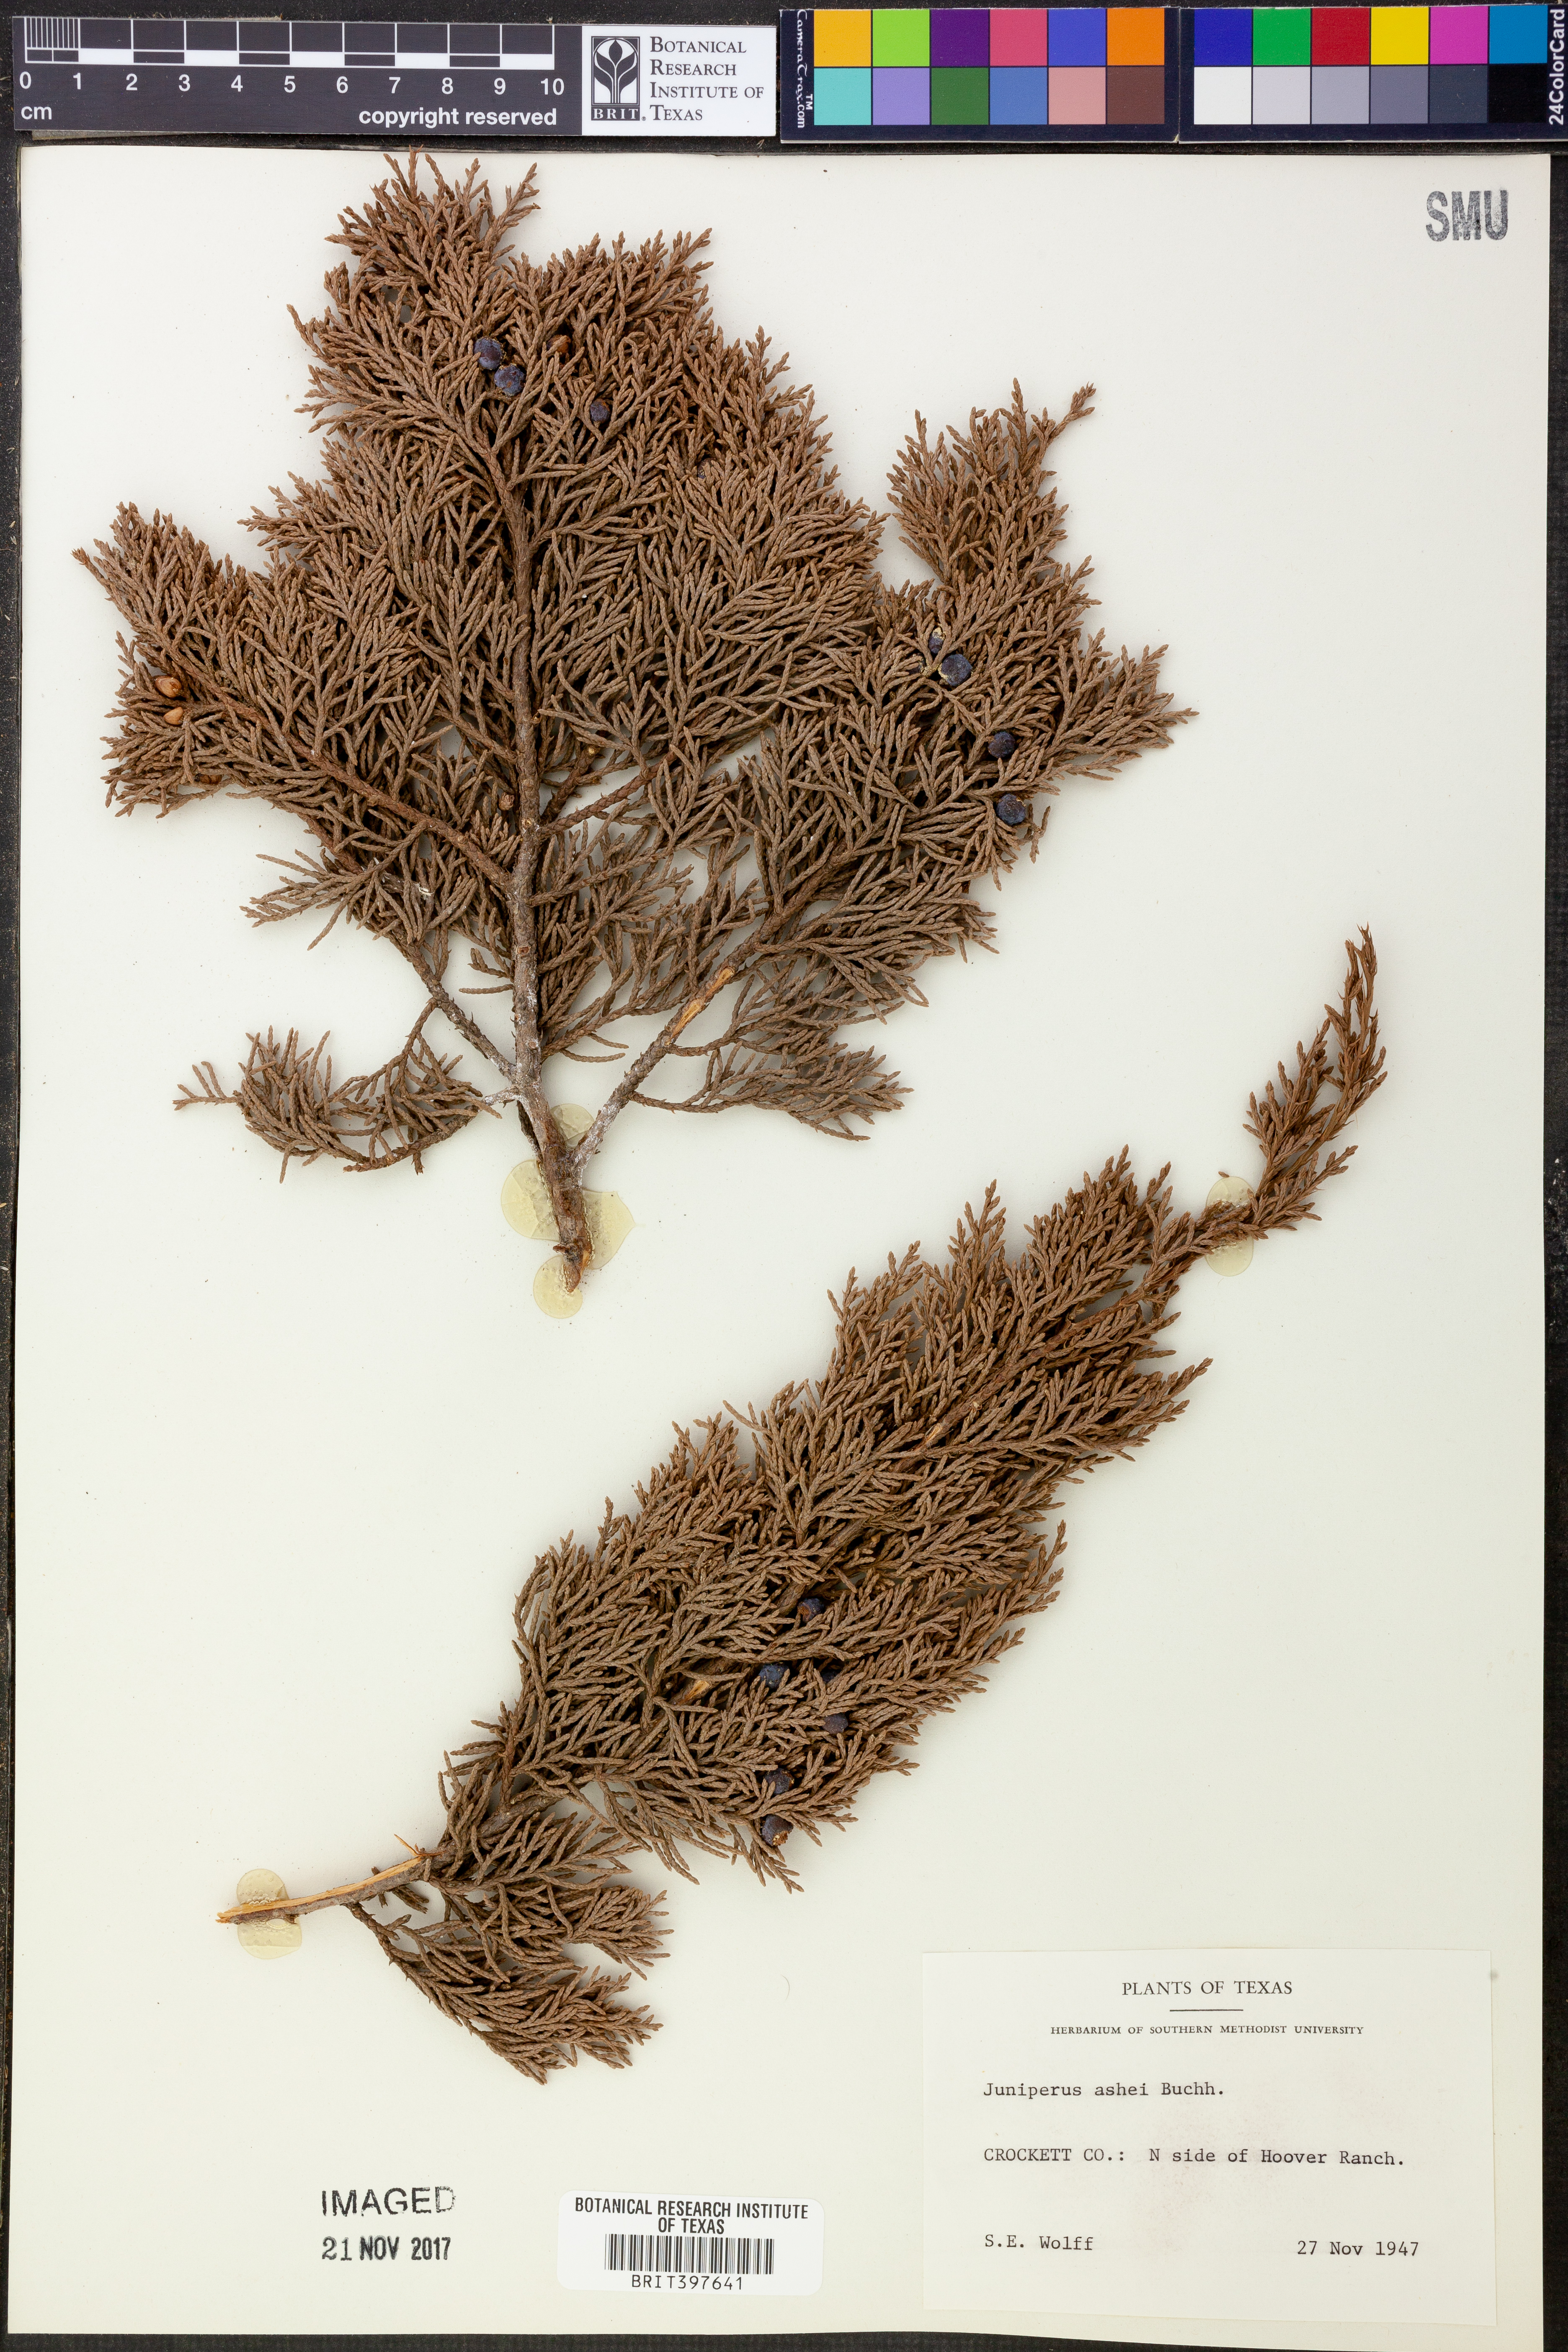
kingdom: Plantae
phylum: Tracheophyta
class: Pinopsida
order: Pinales
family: Cupressaceae
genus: Juniperus
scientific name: Juniperus ashei
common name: Mexican juniper
